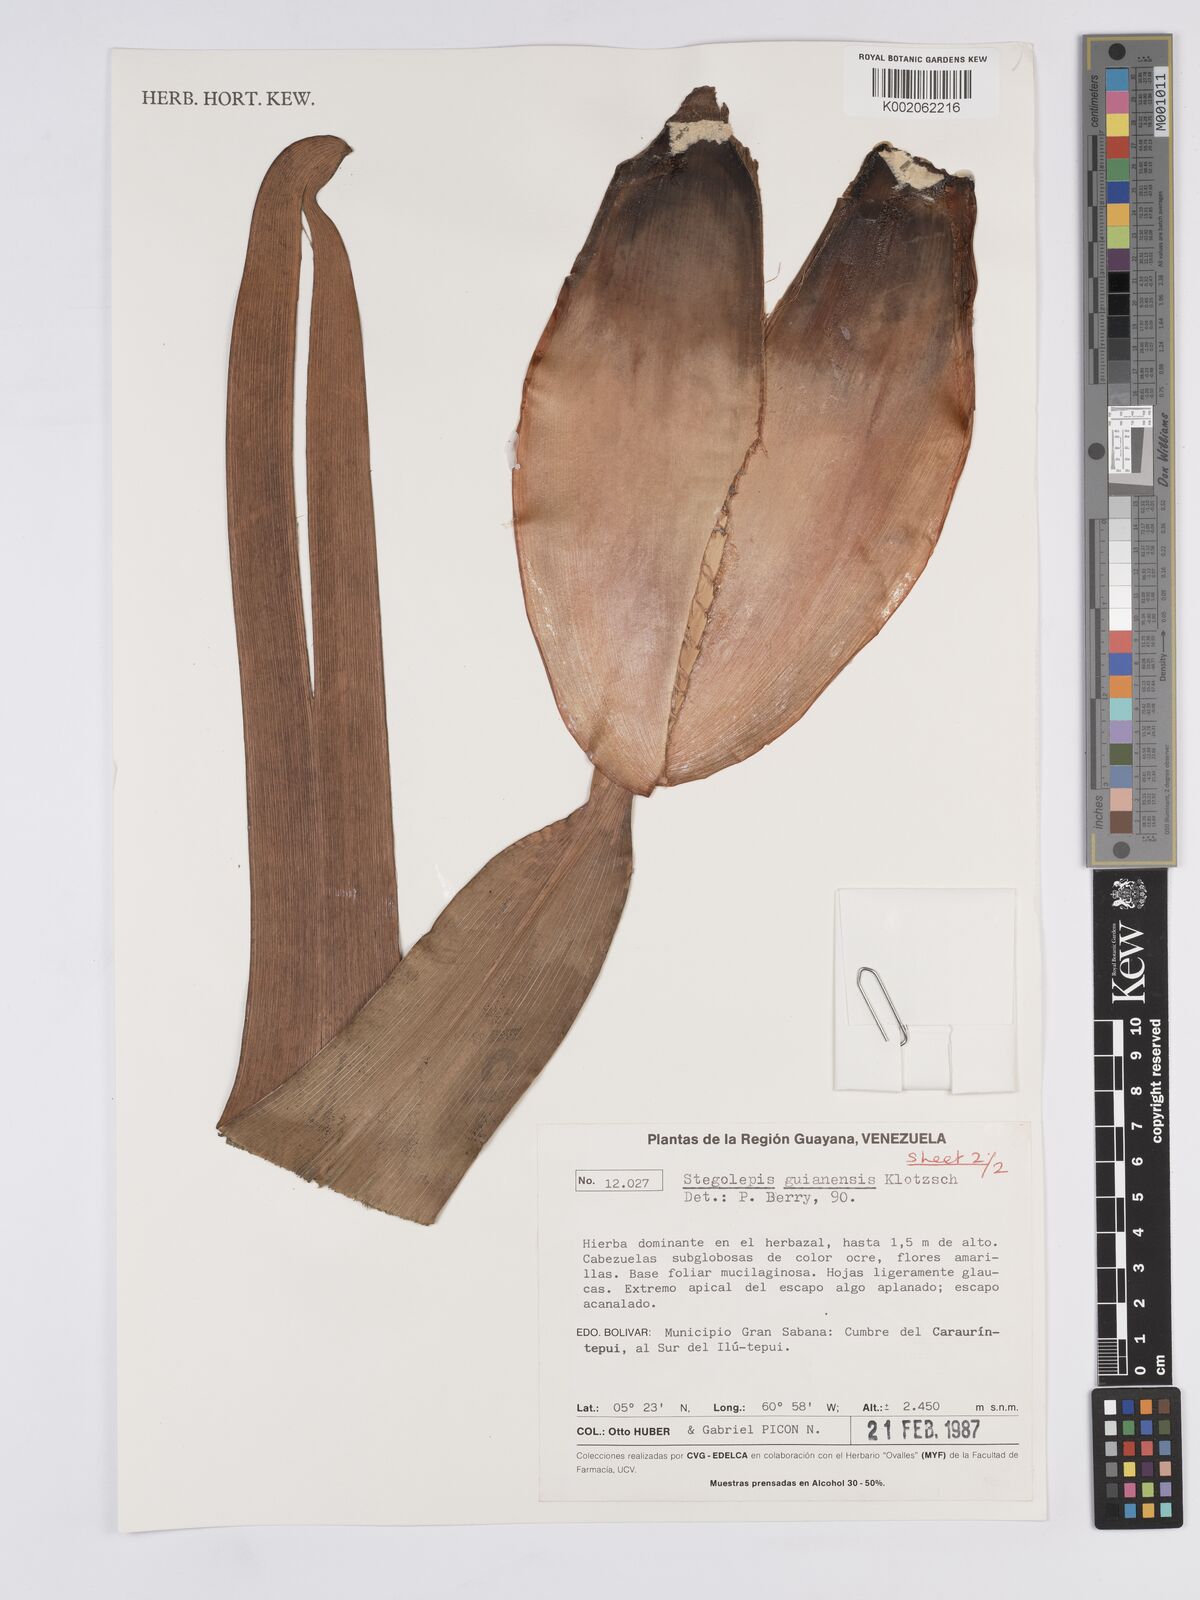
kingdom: Plantae
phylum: Tracheophyta
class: Liliopsida
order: Poales
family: Rapateaceae
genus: Stegolepis
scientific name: Stegolepis guianensis
